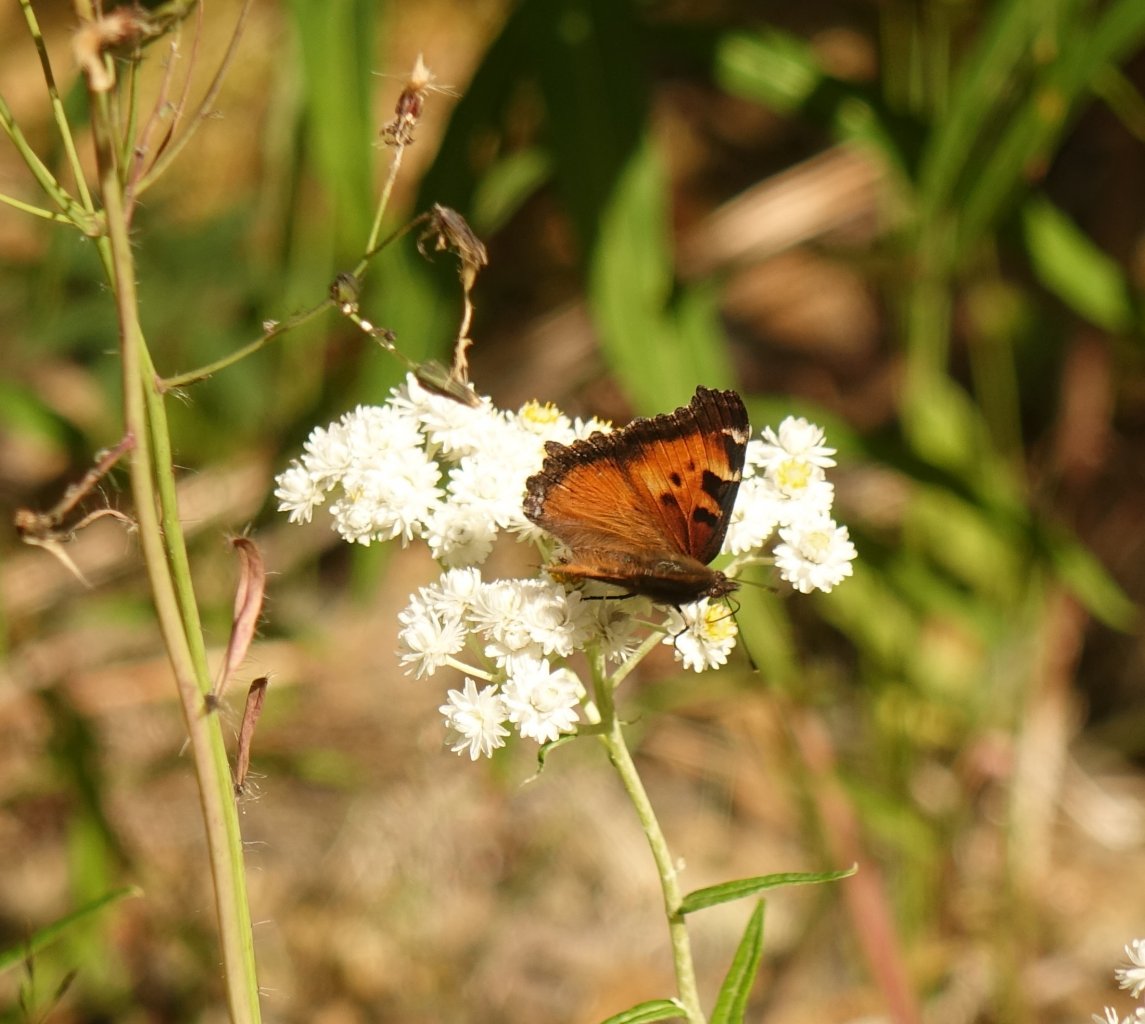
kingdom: Animalia
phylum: Arthropoda
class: Insecta
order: Lepidoptera
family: Nymphalidae
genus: Nymphalis
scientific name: Nymphalis californica
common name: California Tortoiseshell
